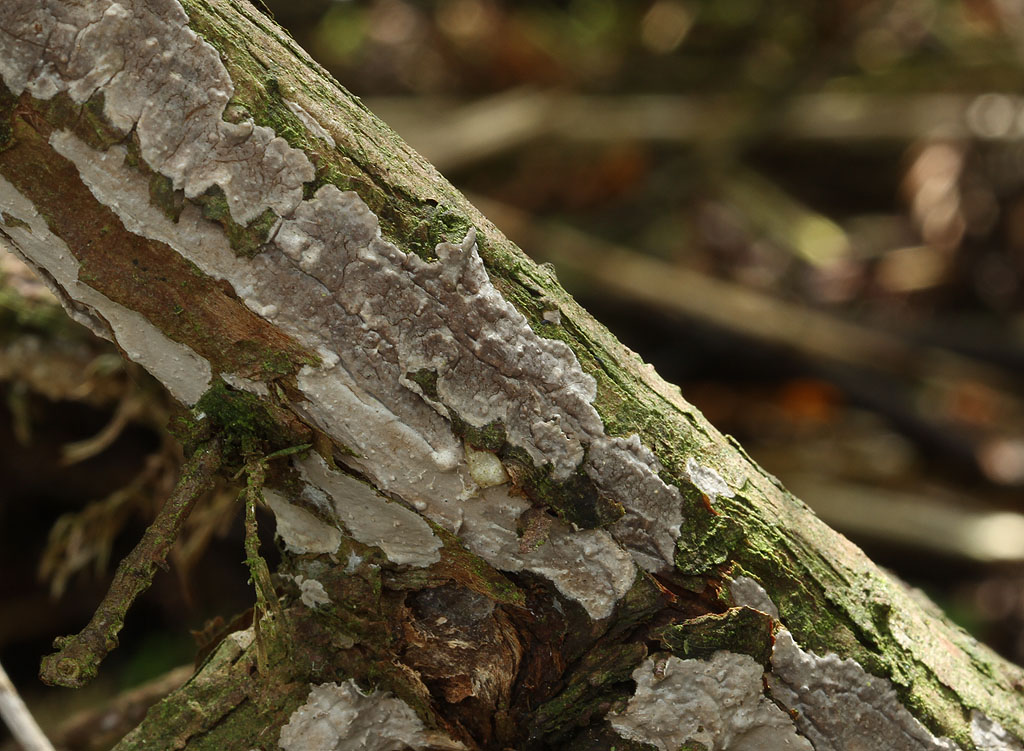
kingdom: Fungi
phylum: Basidiomycota
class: Agaricomycetes
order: Russulales
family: Echinodontiaceae
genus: Amylostereum
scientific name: Amylostereum laevigatum
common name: ene-lædersvamp
